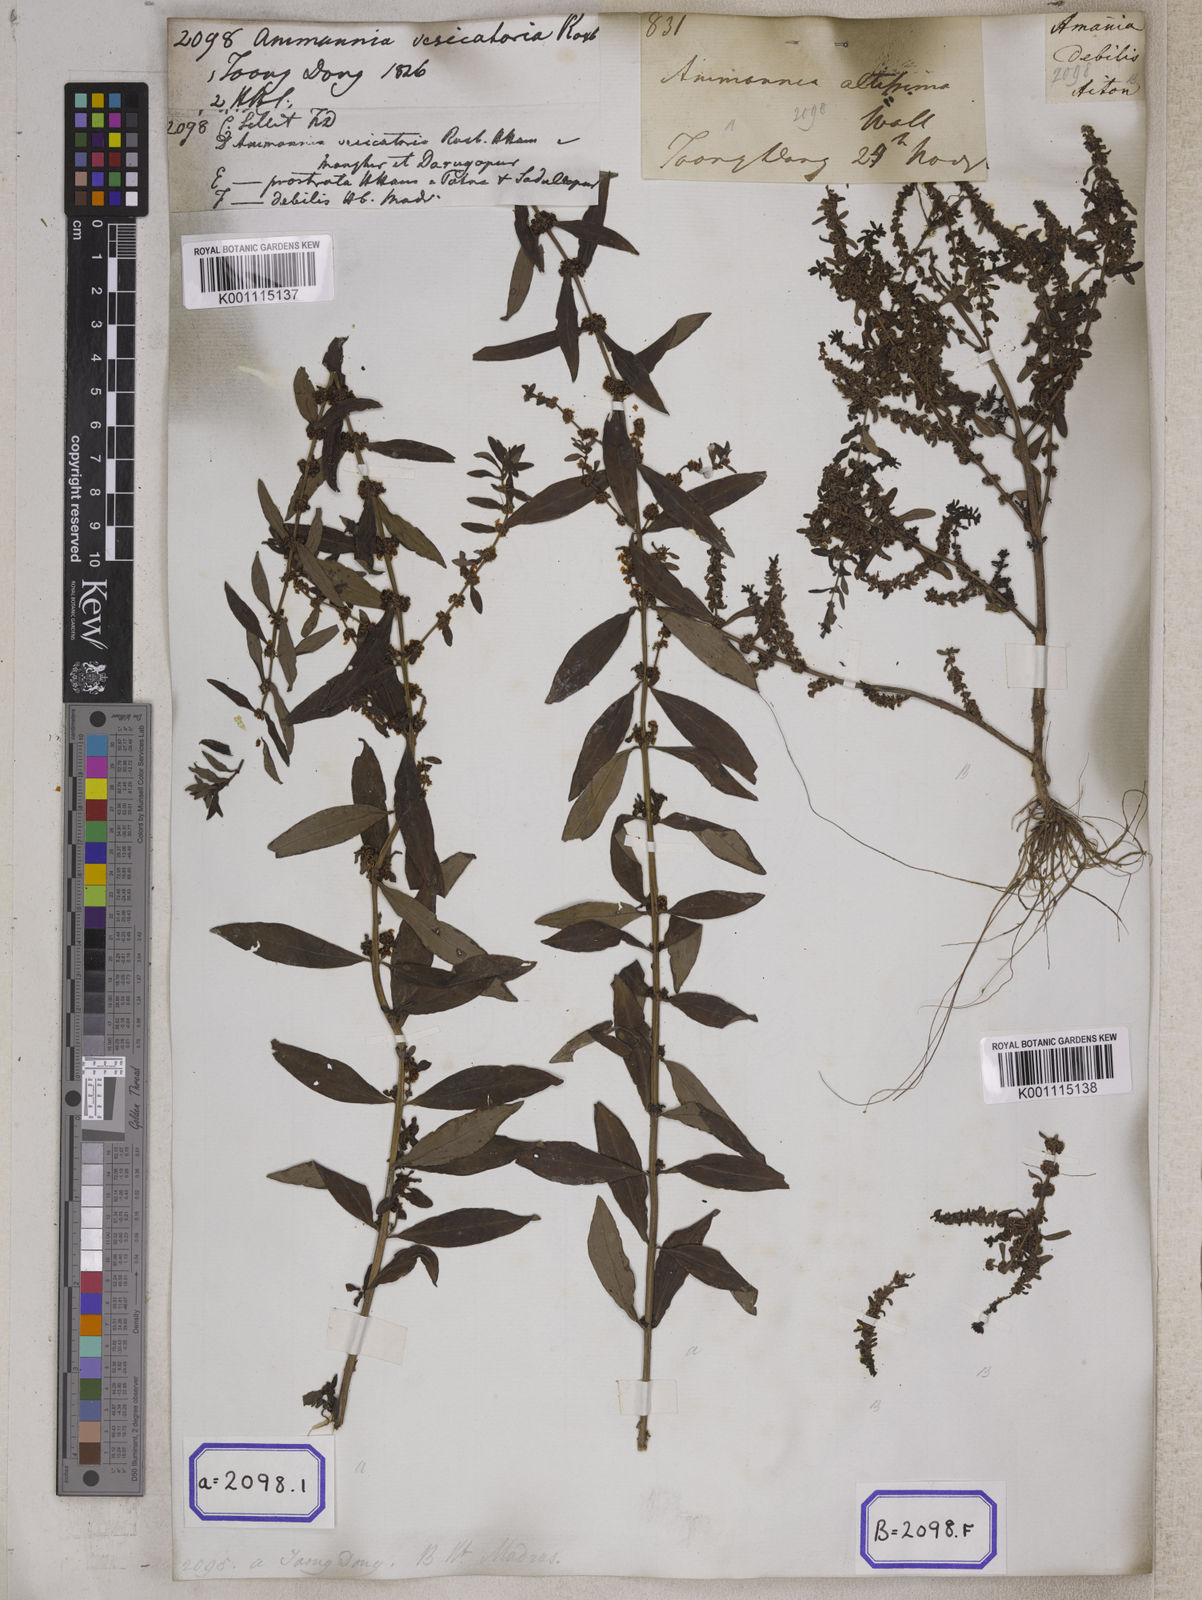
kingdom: Plantae
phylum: Tracheophyta
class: Magnoliopsida
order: Myrtales
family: Lythraceae
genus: Ammannia
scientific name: Ammannia baccifera
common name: Blistering ammania
